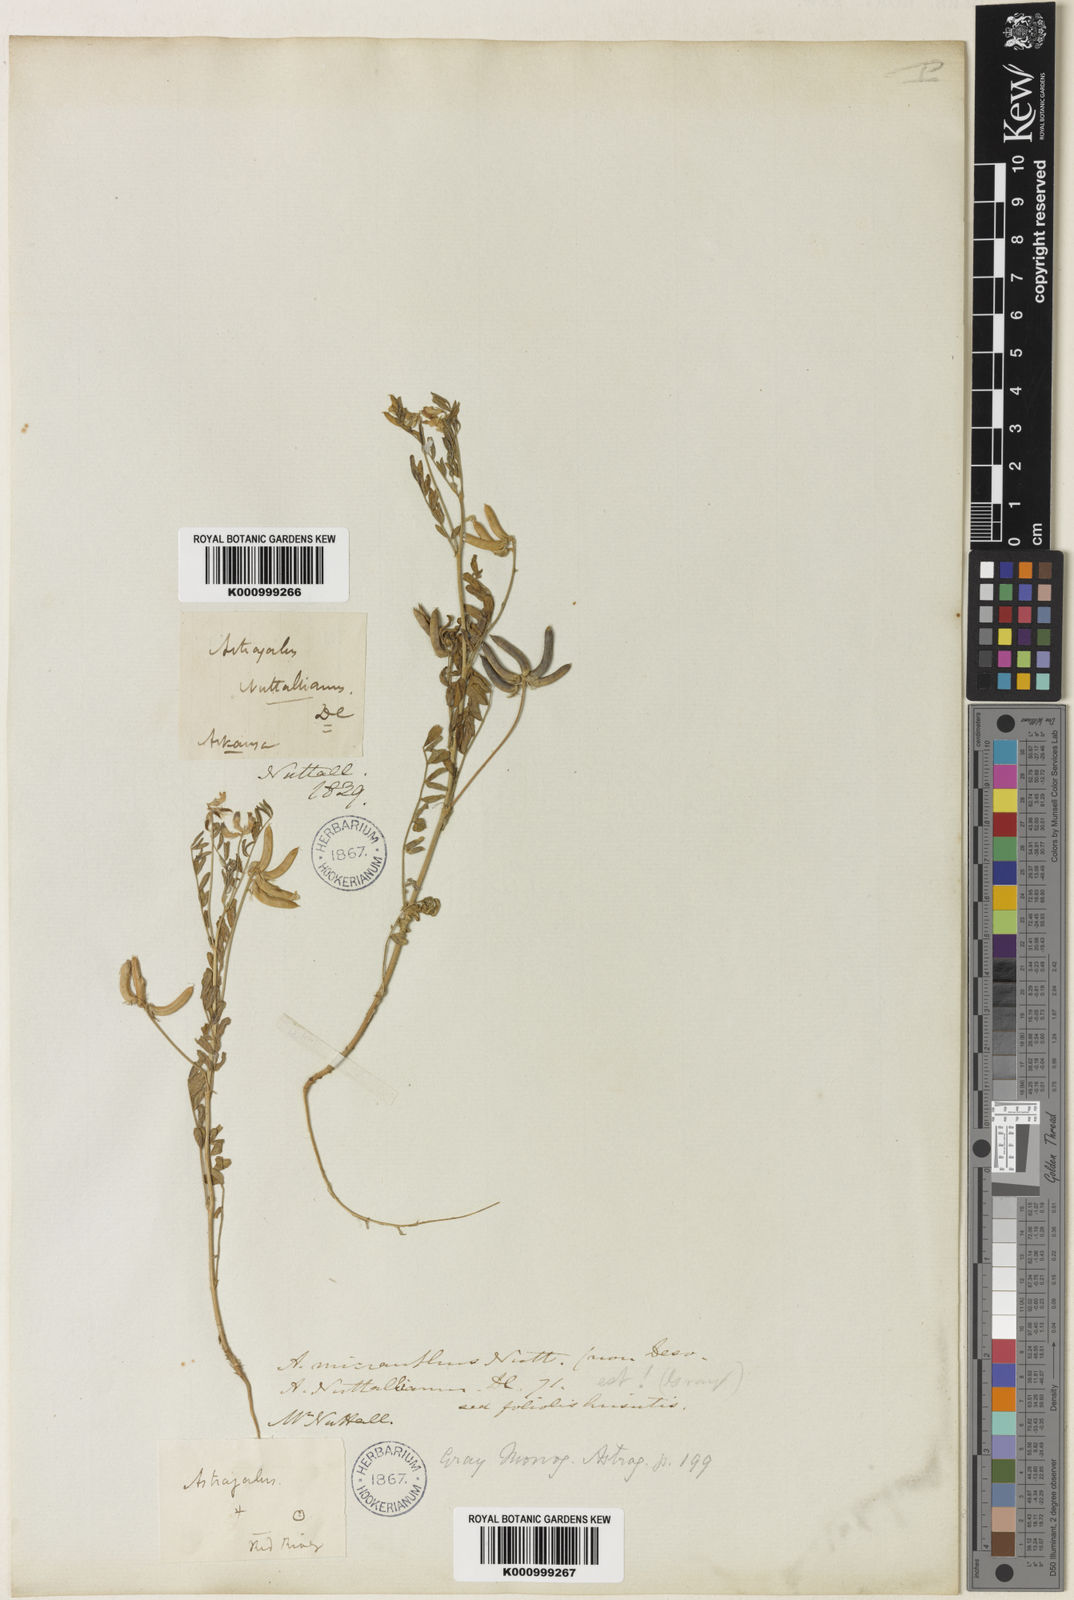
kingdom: Plantae
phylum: Tracheophyta
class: Magnoliopsida
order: Fabales
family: Fabaceae
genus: Astragalus
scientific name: Astragalus nuttallianus
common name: Smallflowered milkvetch
